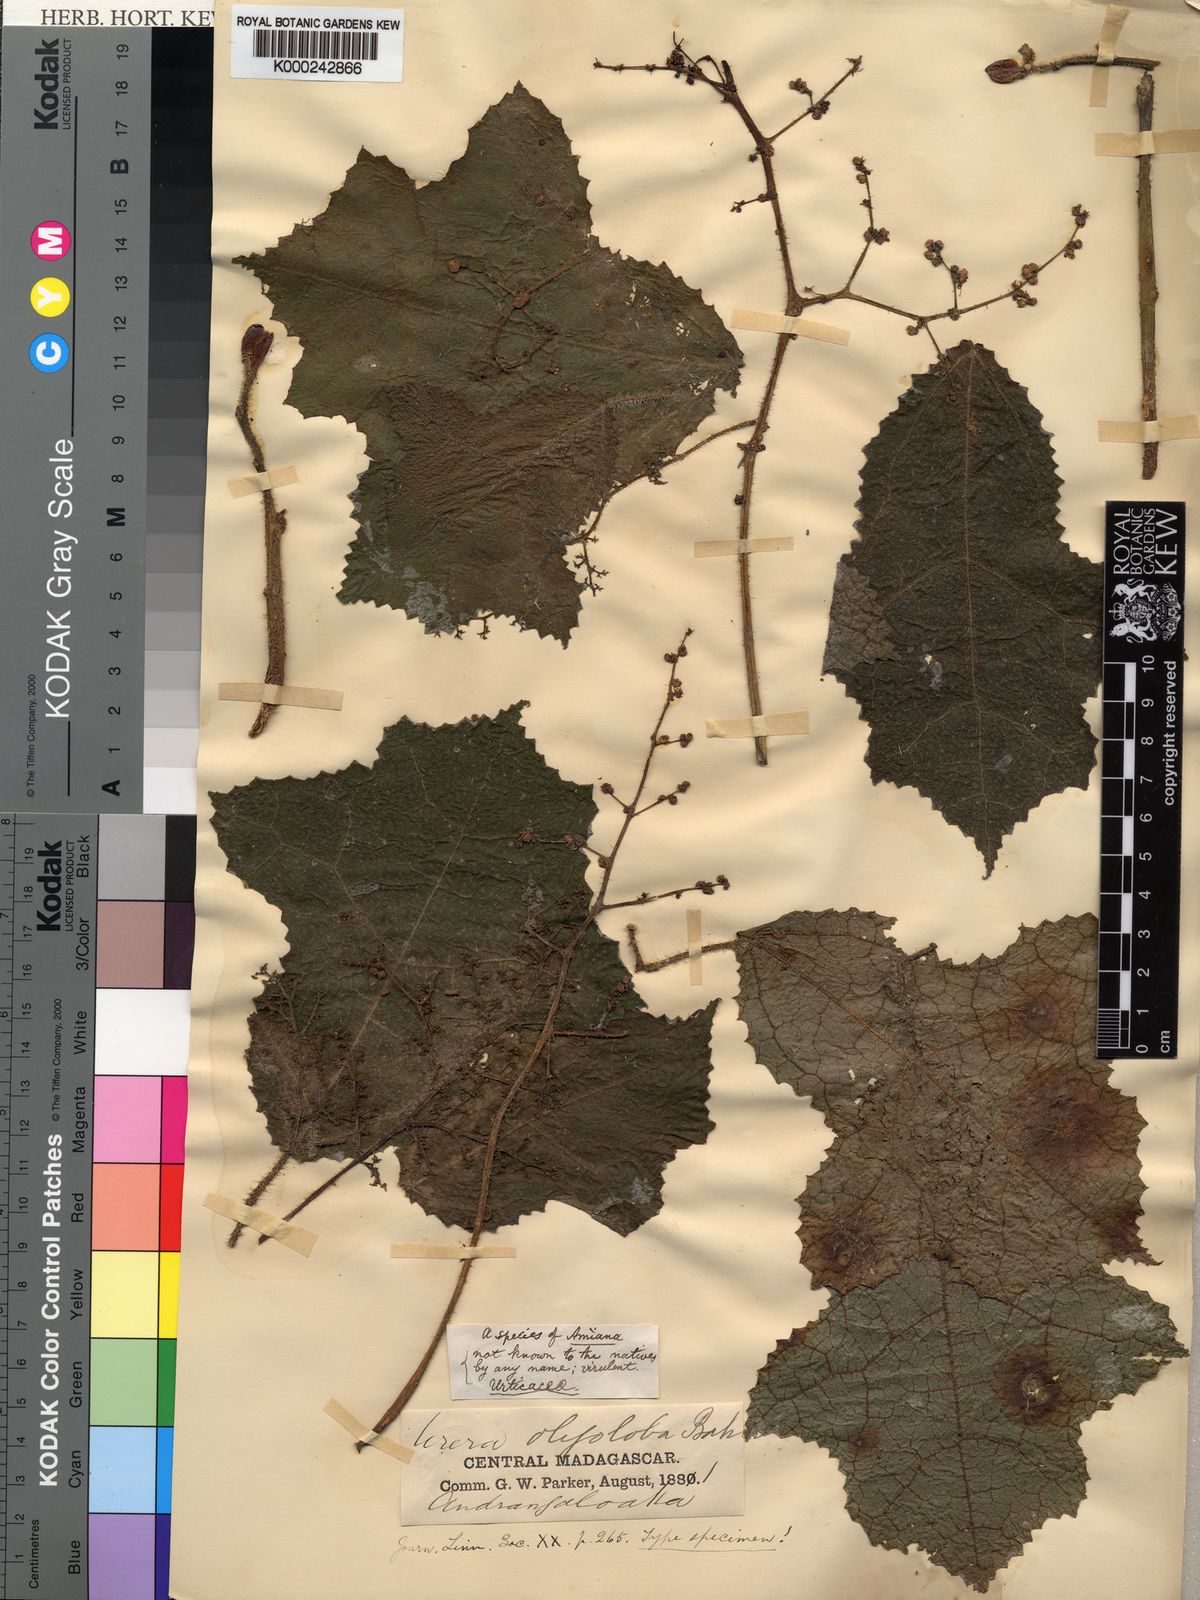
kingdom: Plantae
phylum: Tracheophyta
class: Magnoliopsida
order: Rosales
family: Urticaceae
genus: Laportea
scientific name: Laportea oligoloba
